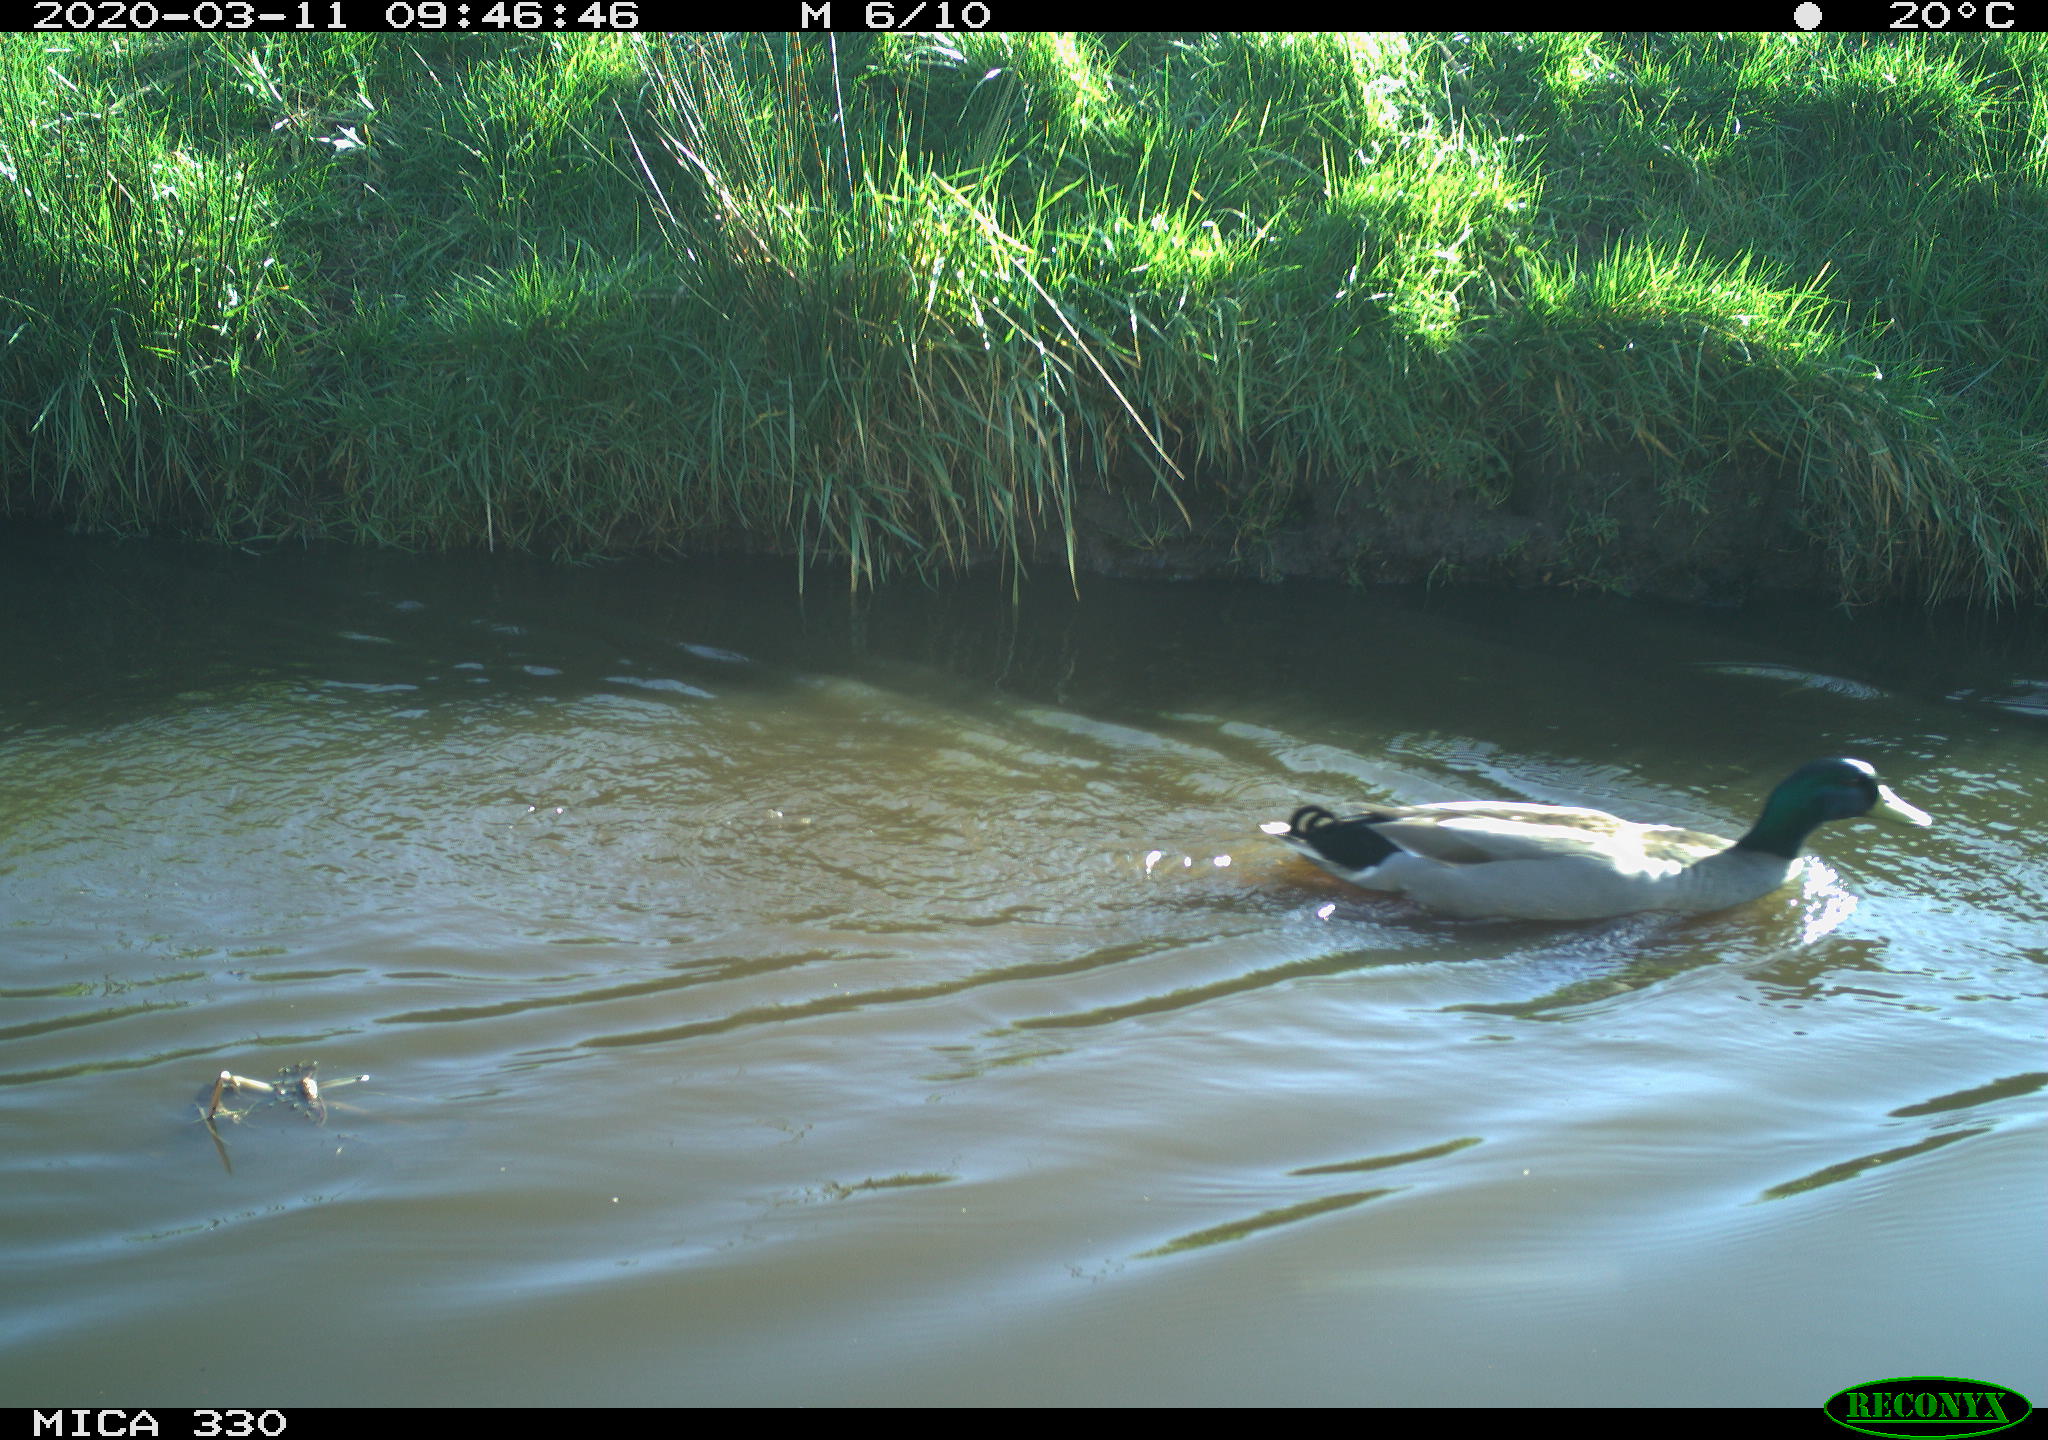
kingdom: Animalia
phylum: Chordata
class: Aves
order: Gruiformes
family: Rallidae
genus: Fulica
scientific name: Fulica atra
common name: Eurasian coot
